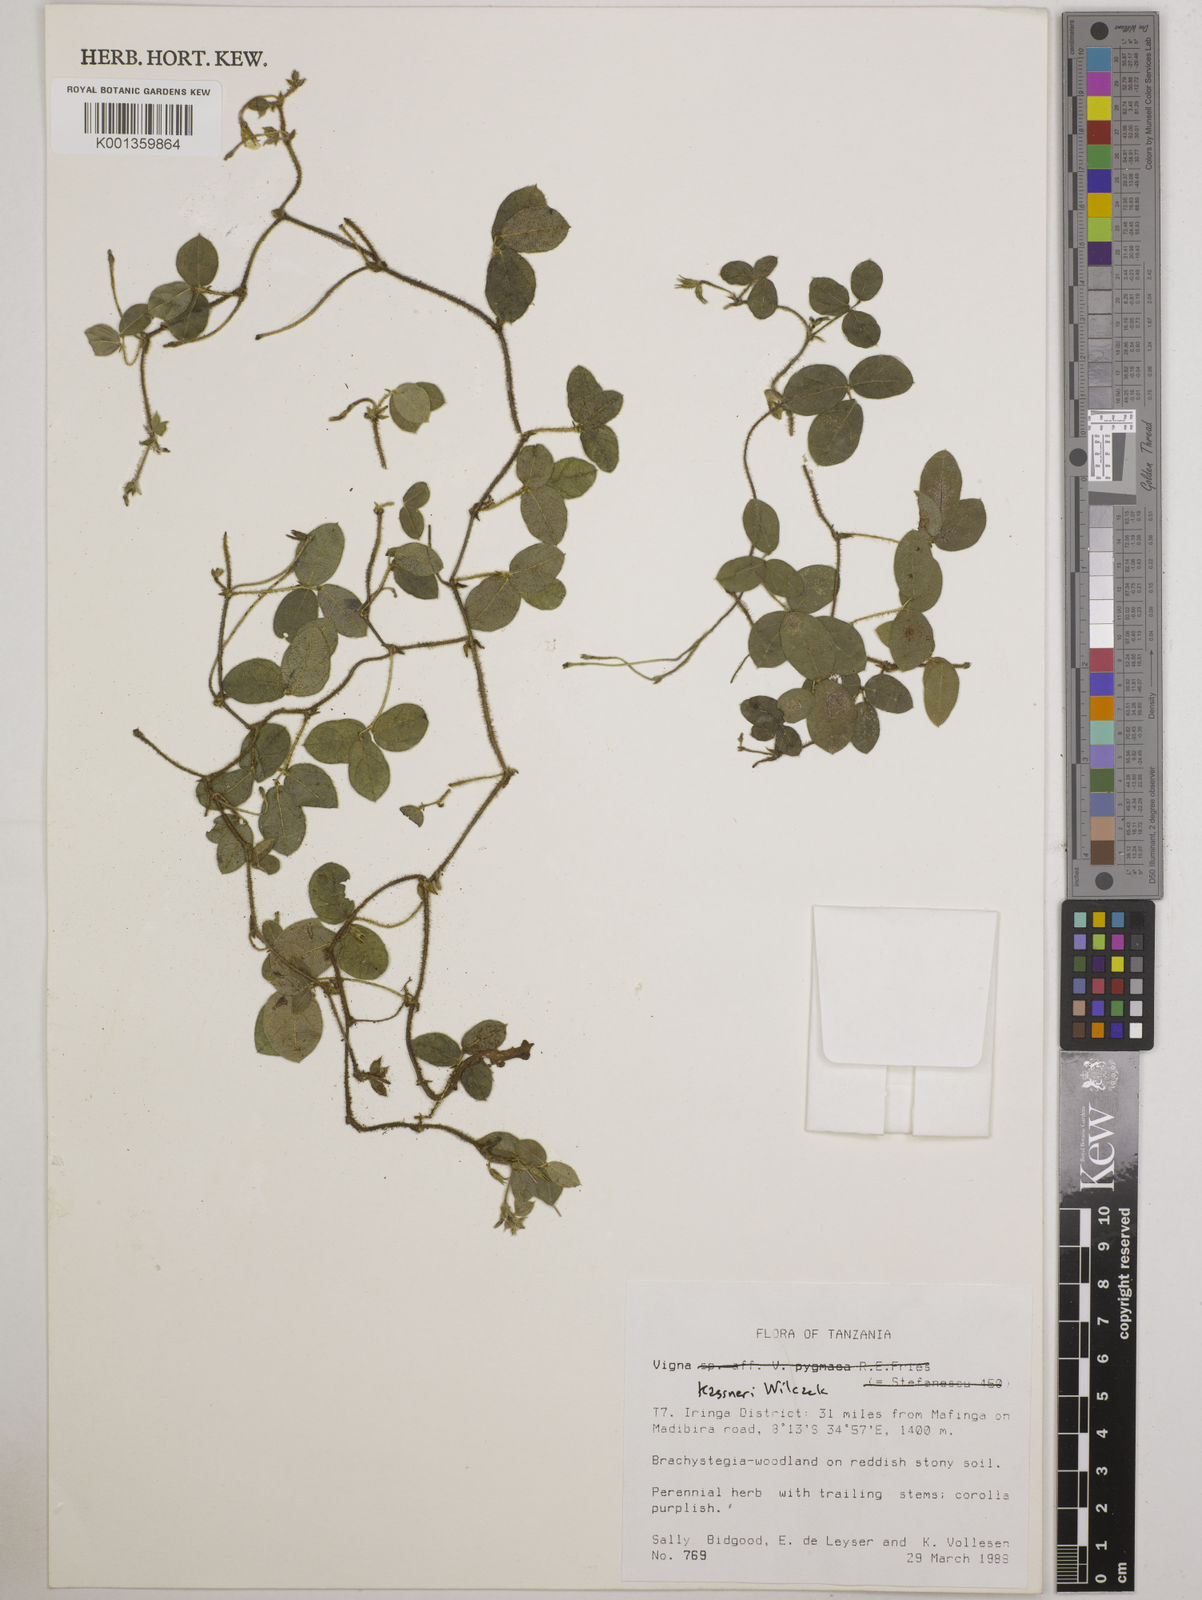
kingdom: Plantae
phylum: Tracheophyta
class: Magnoliopsida
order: Fabales
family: Fabaceae
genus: Vigna
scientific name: Vigna
